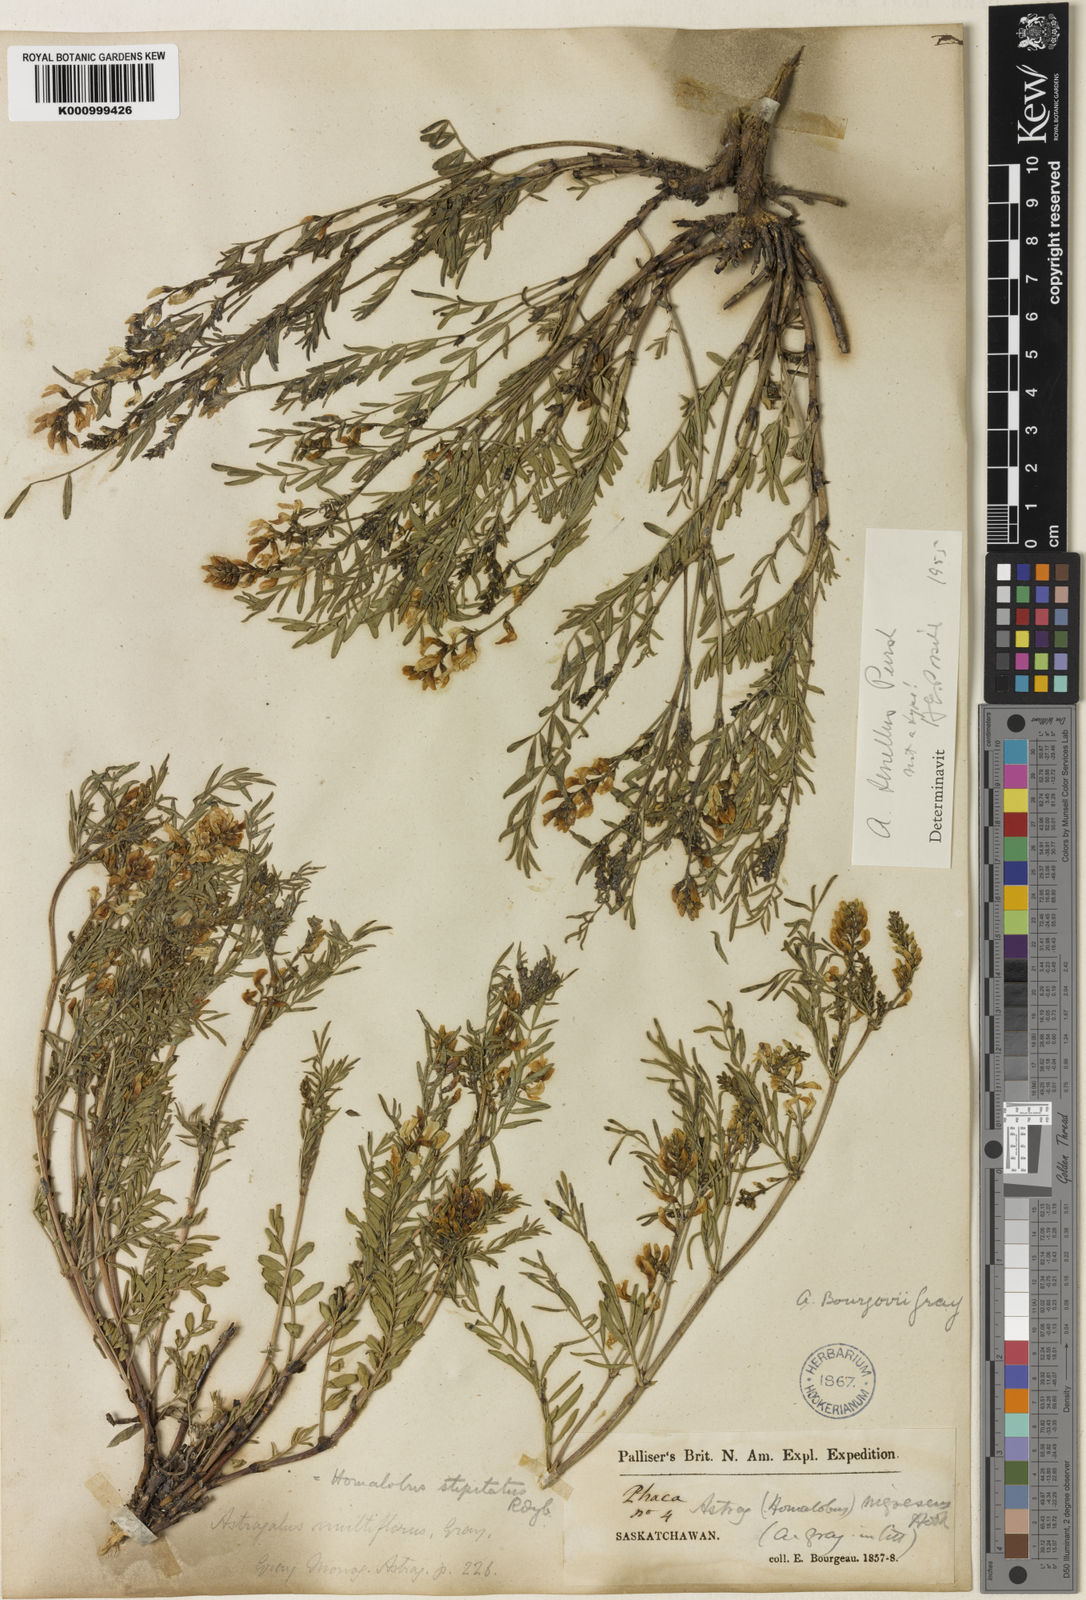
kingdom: Plantae
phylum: Tracheophyta
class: Magnoliopsida
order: Fabales
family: Fabaceae
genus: Astragalus
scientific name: Astragalus bourgovii
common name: Bourgeau's milk-vetch
